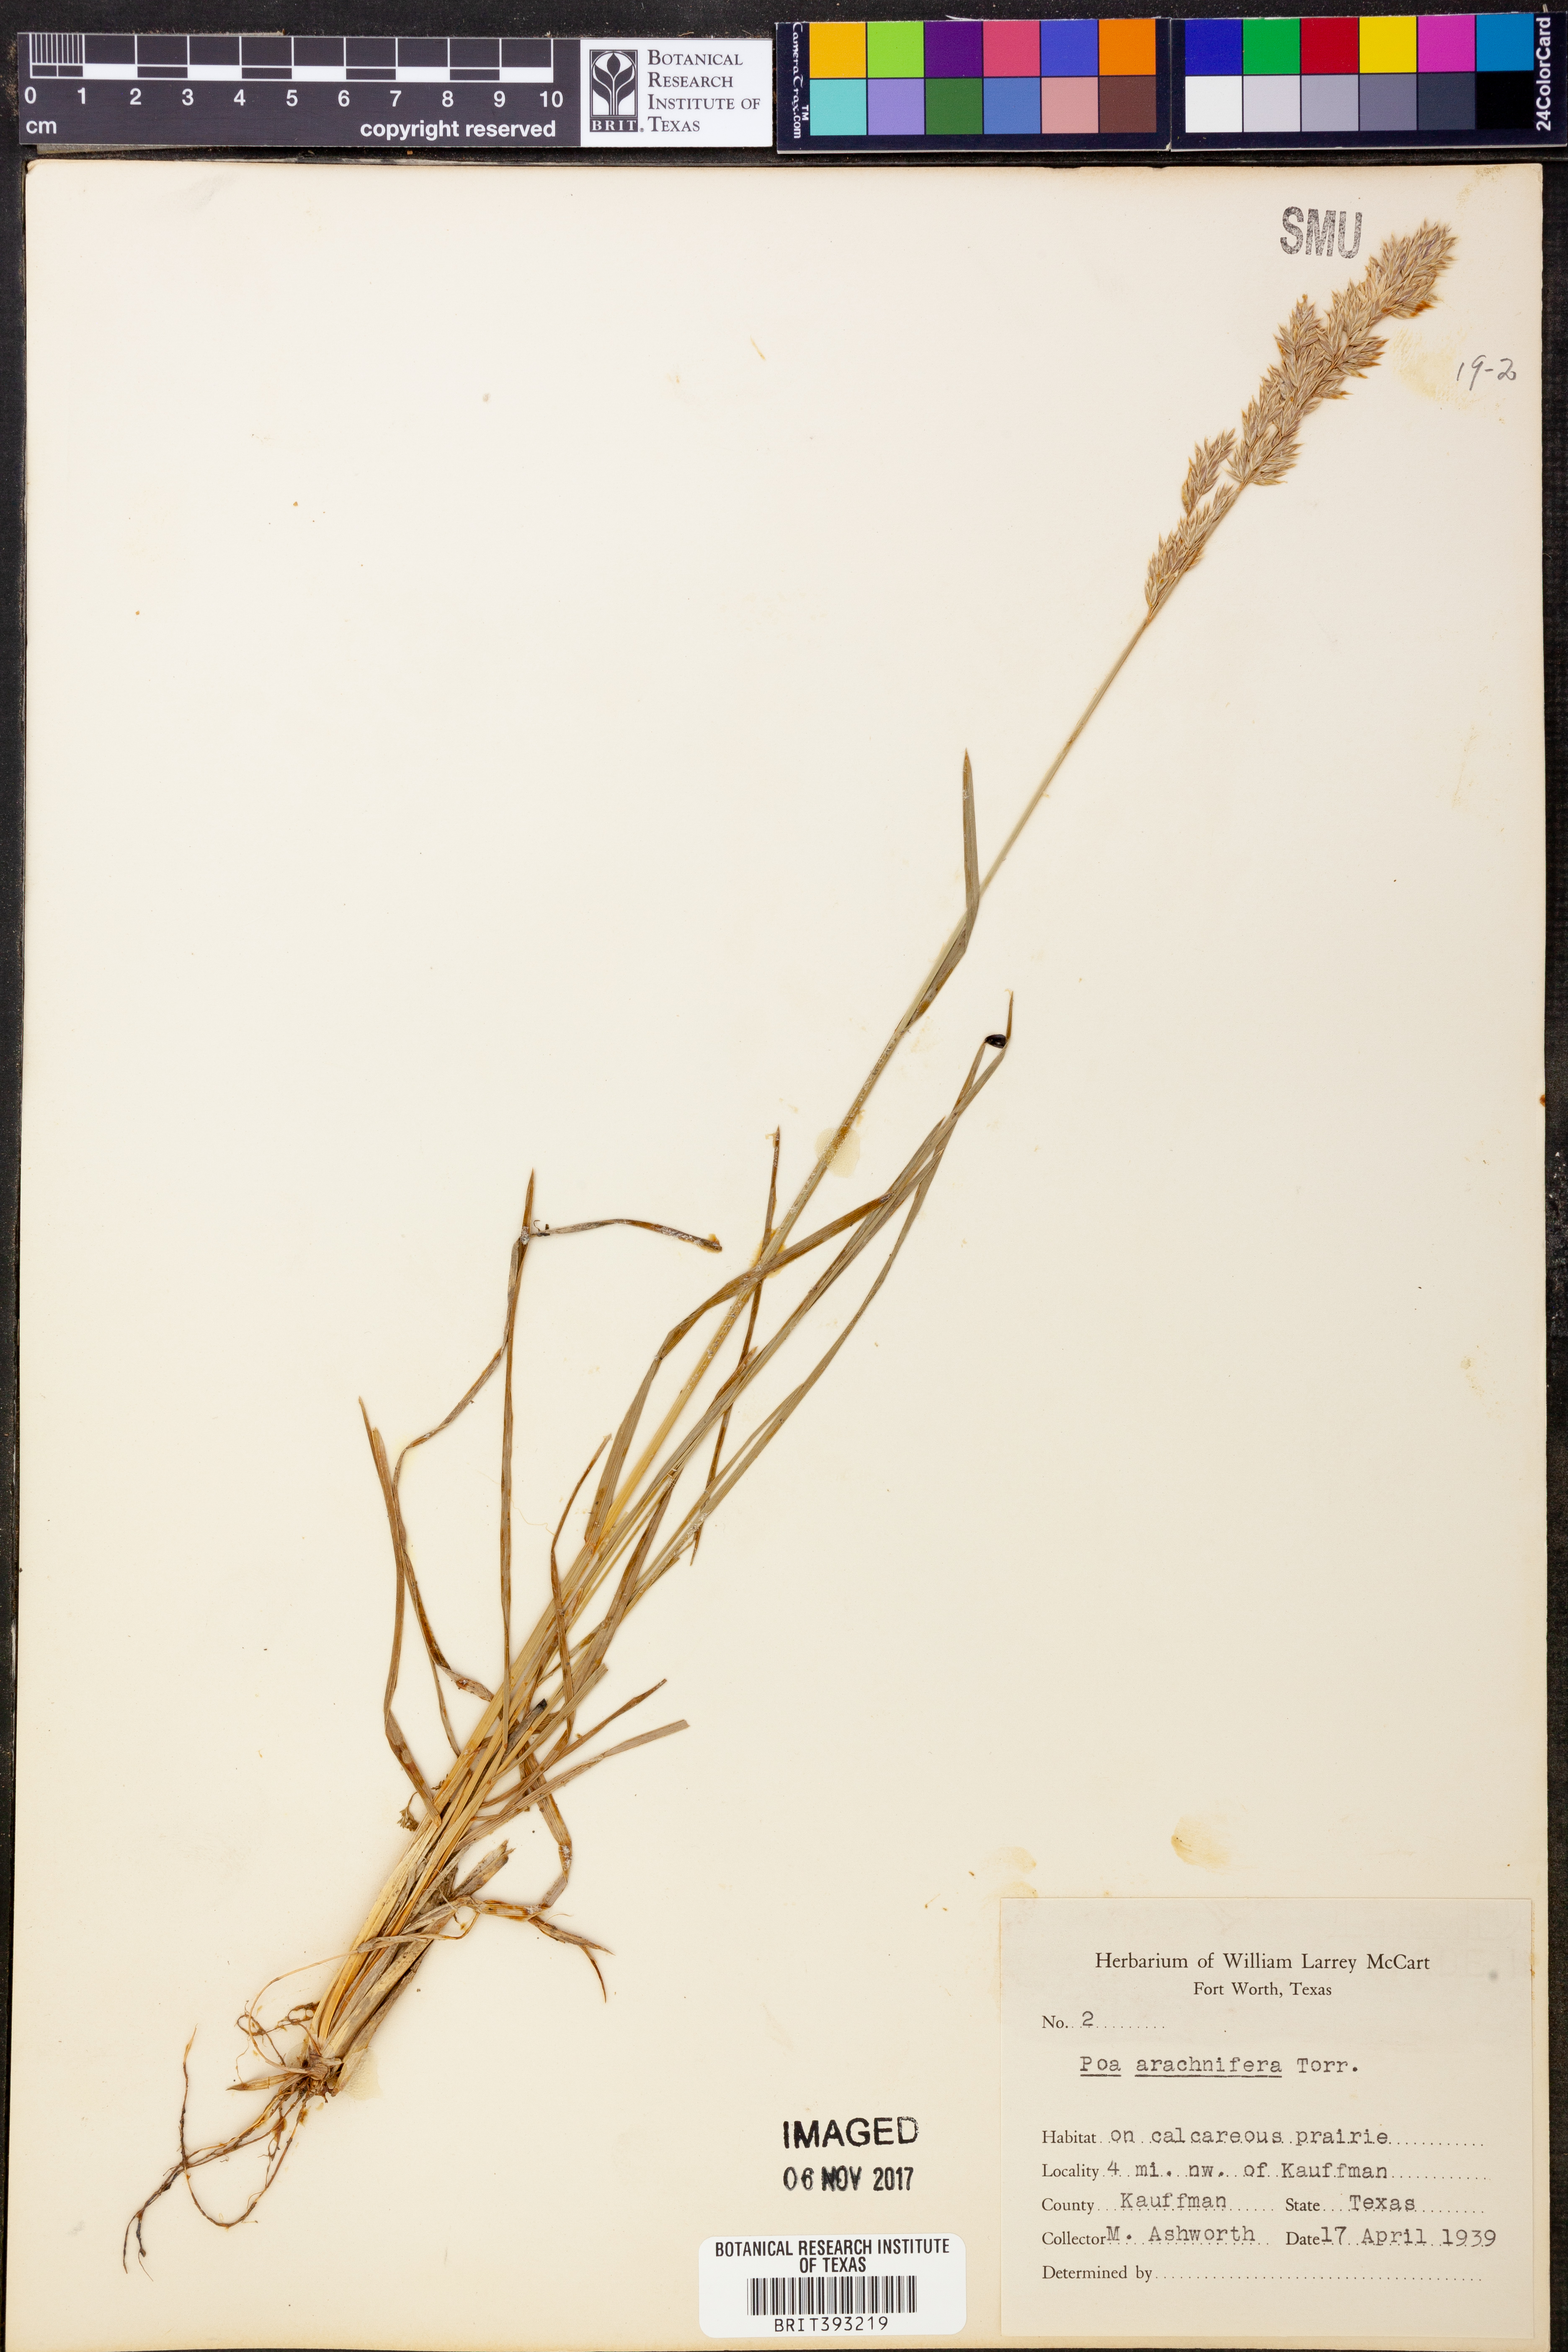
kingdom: Plantae
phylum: Tracheophyta
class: Liliopsida
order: Poales
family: Poaceae
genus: Poa
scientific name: Poa arachnifera
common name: Texas bluegrass
